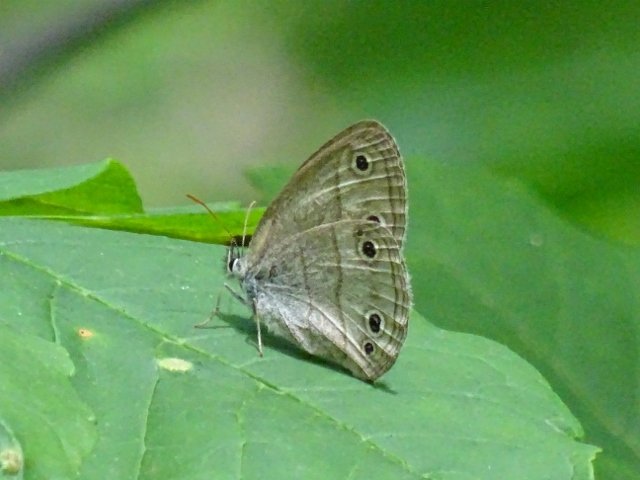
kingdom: Animalia
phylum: Arthropoda
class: Insecta
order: Lepidoptera
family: Nymphalidae
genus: Euptychia
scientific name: Euptychia cymela
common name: Little Wood Satyr
